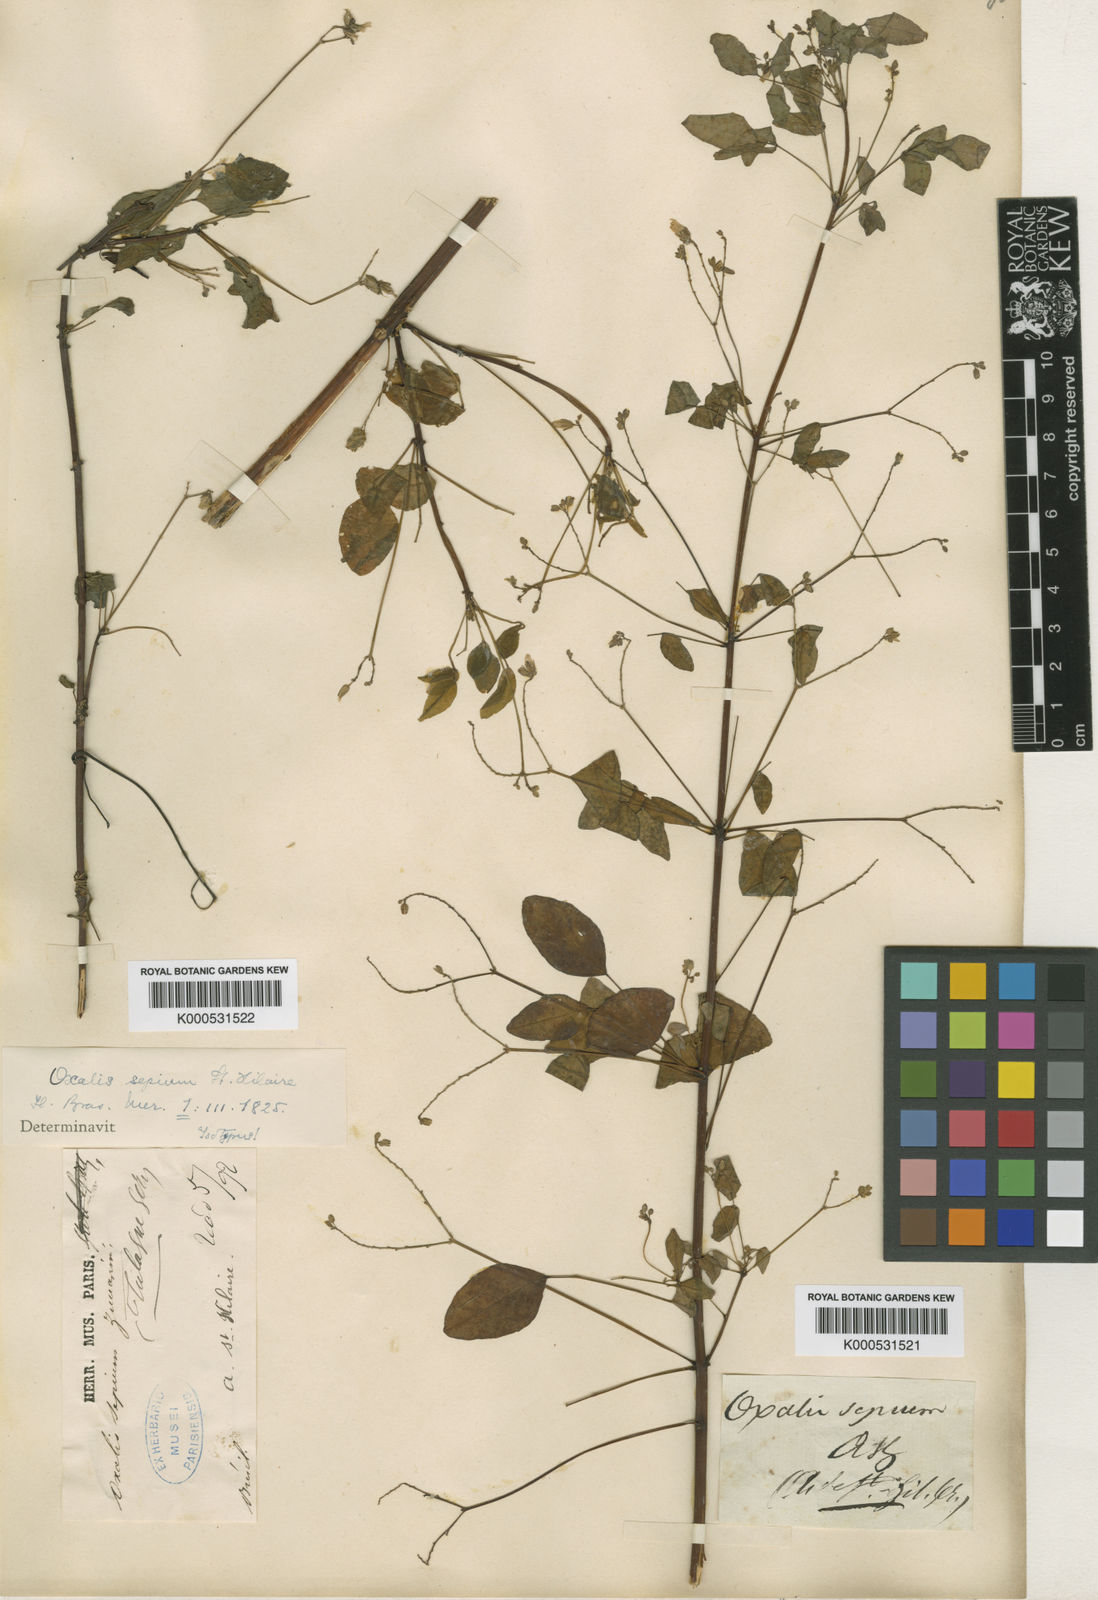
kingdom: Plantae
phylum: Tracheophyta
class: Magnoliopsida
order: Oxalidales
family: Oxalidaceae
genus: Oxalis
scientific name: Oxalis sepium
